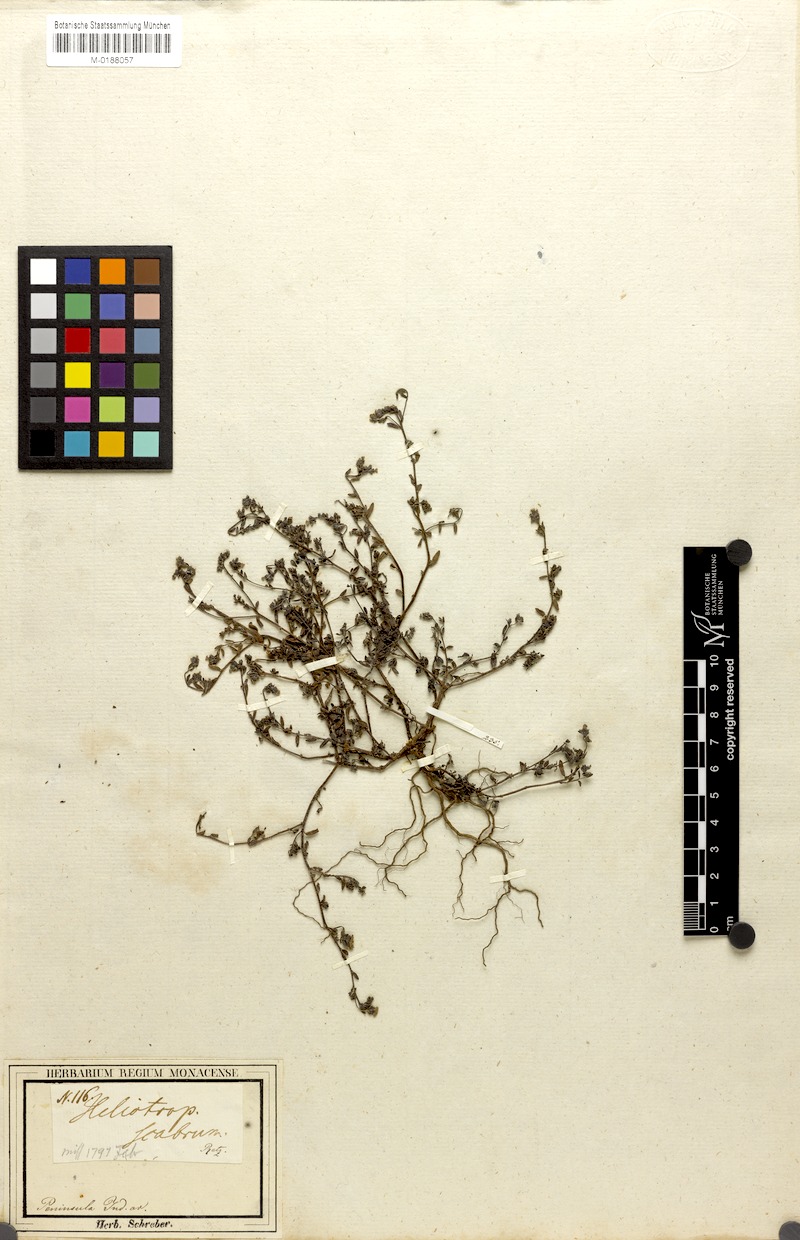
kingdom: Plantae
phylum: Tracheophyta
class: Magnoliopsida
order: Boraginales
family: Heliotropiaceae
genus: Euploca
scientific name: Euploca marifolia
